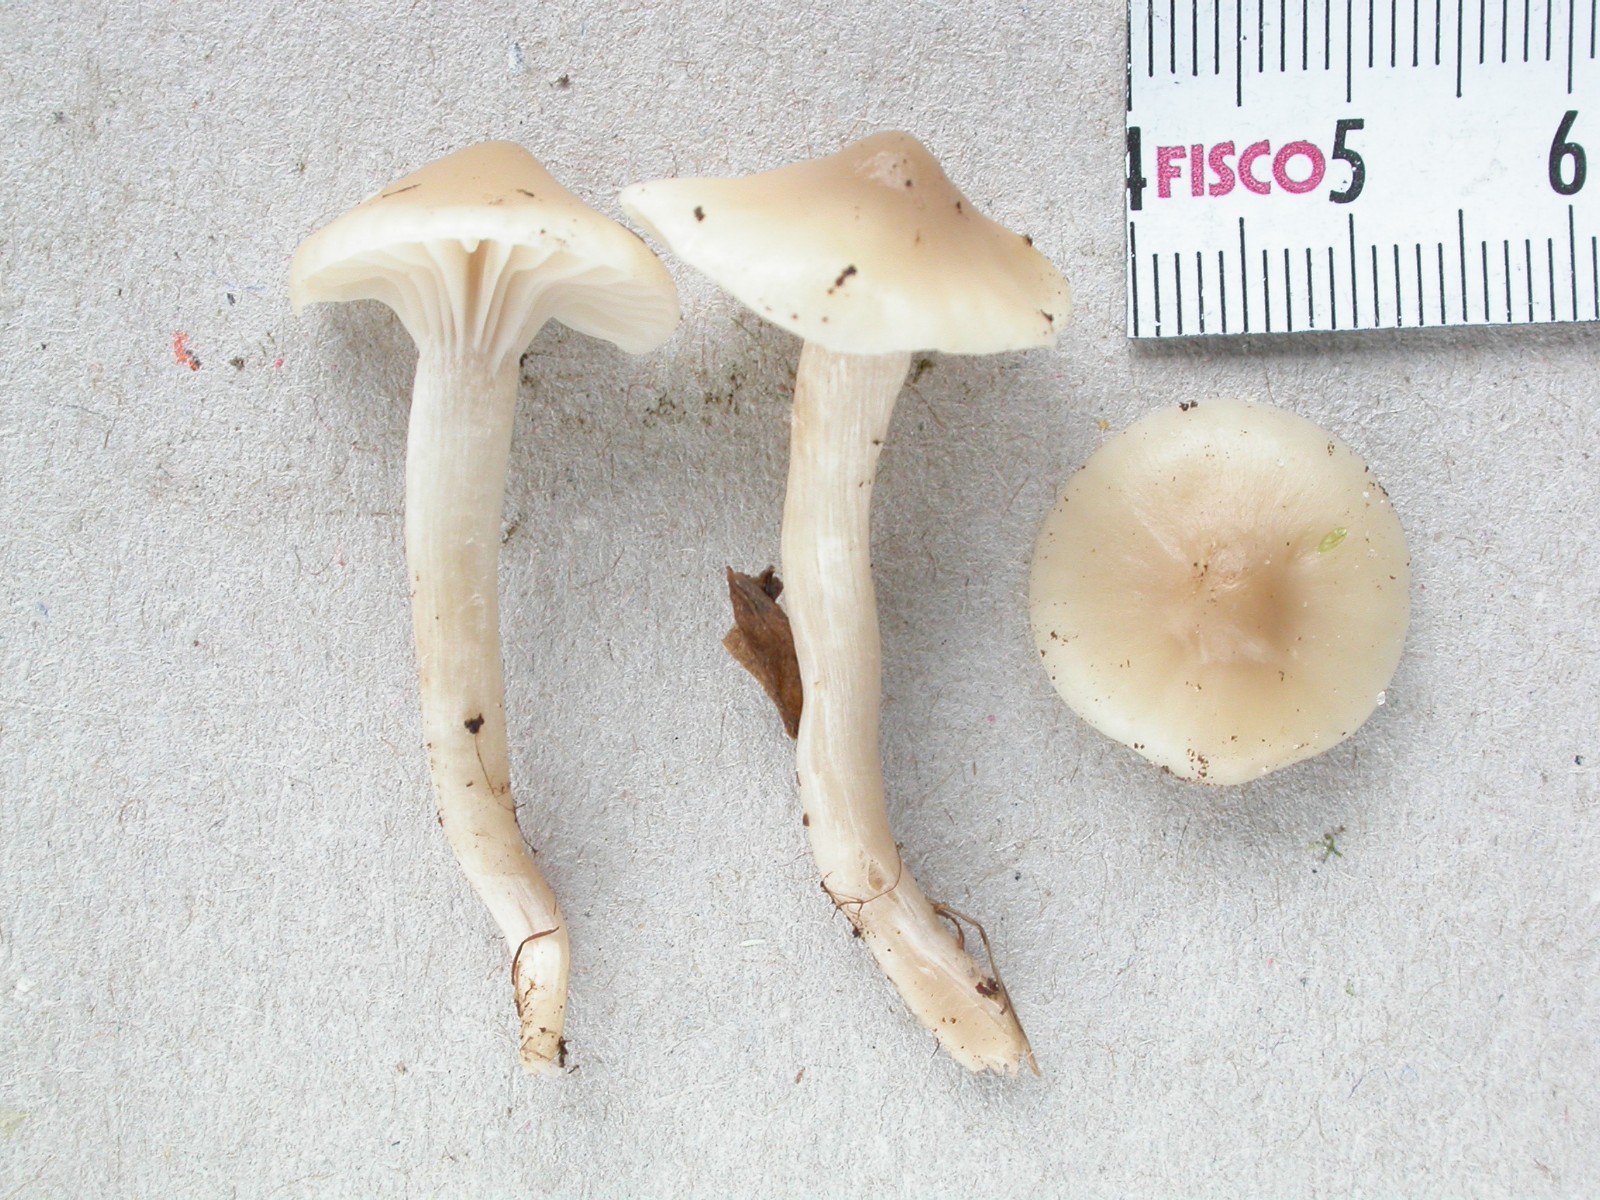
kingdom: Fungi
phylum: Basidiomycota
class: Agaricomycetes
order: Agaricales
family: Hygrophoraceae
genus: Cuphophyllus
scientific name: Cuphophyllus virgineus
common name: isabella-vokshat
